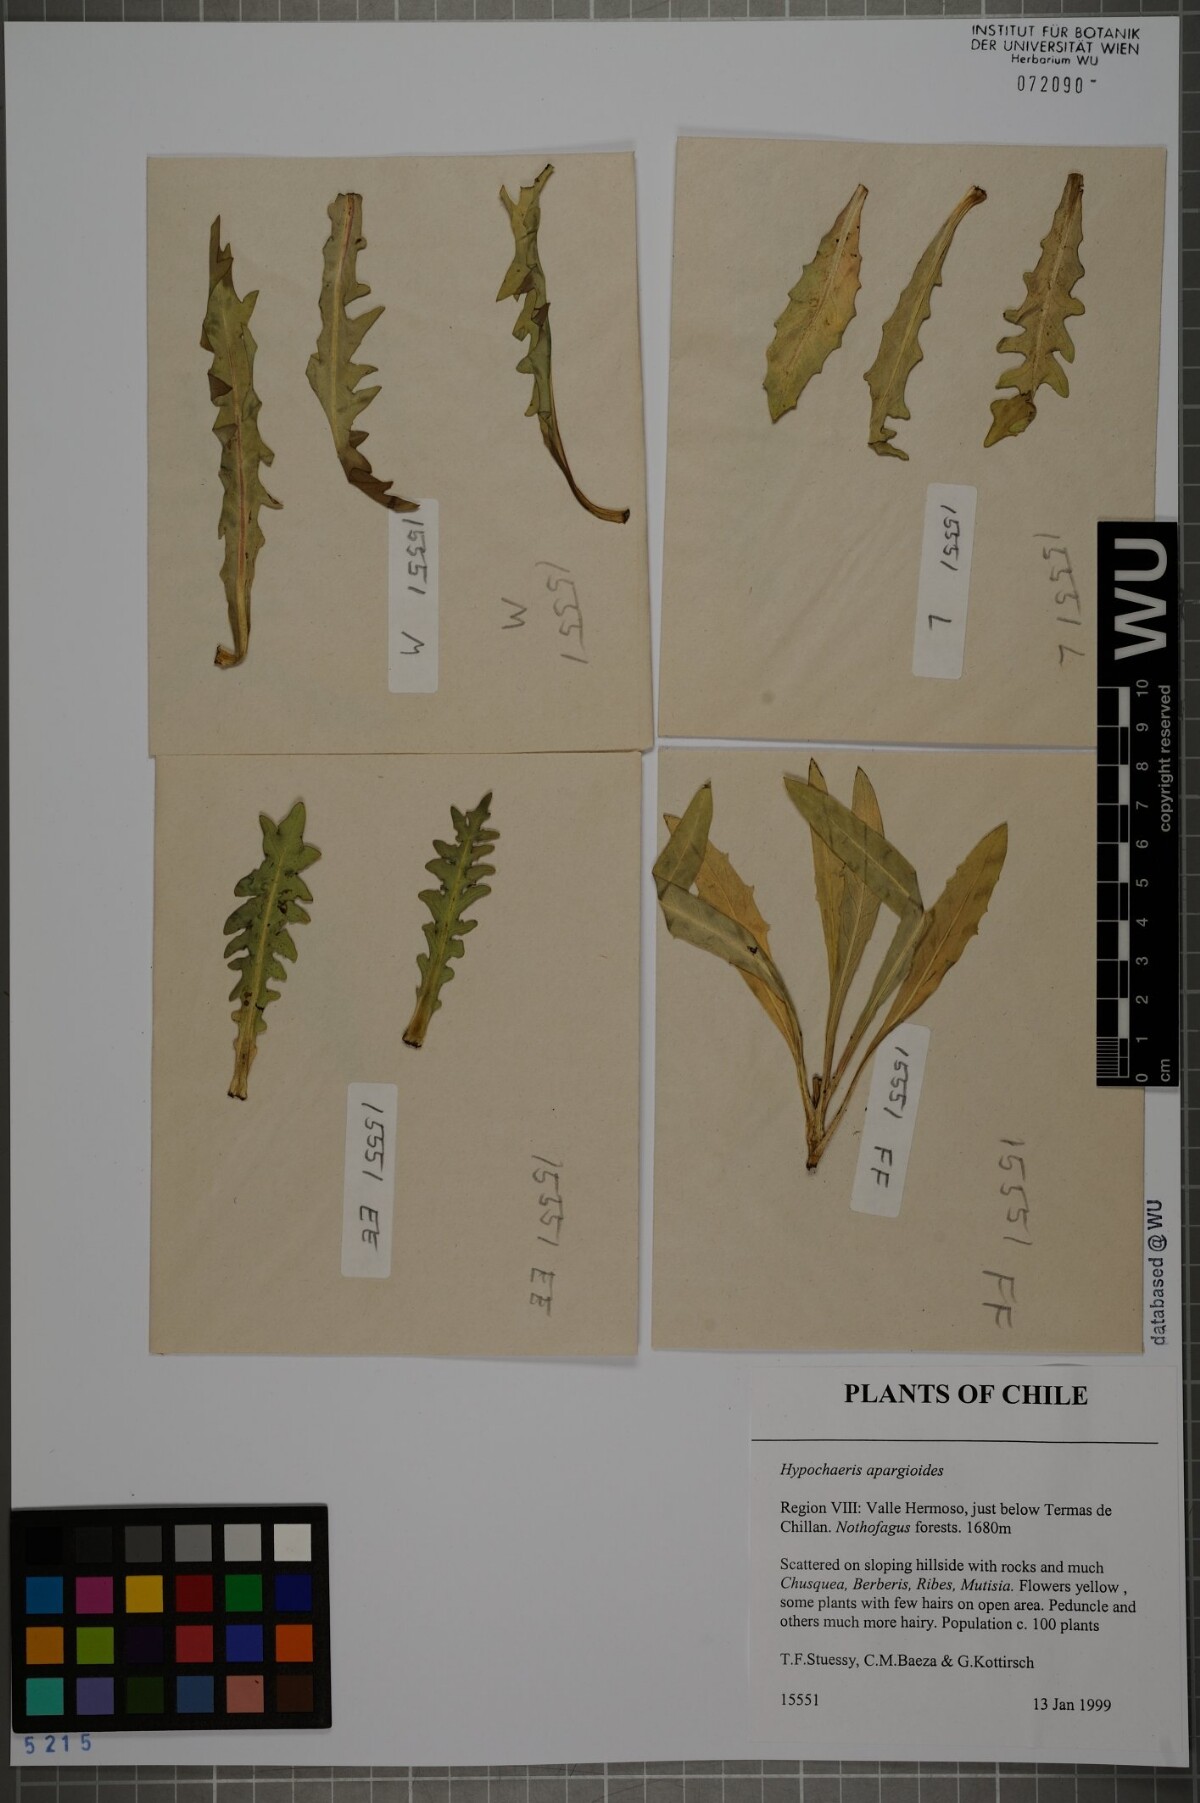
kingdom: Plantae
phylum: Tracheophyta
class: Magnoliopsida
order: Asterales
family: Asteraceae
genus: Hypochaeris
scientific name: Hypochaeris apargioides
